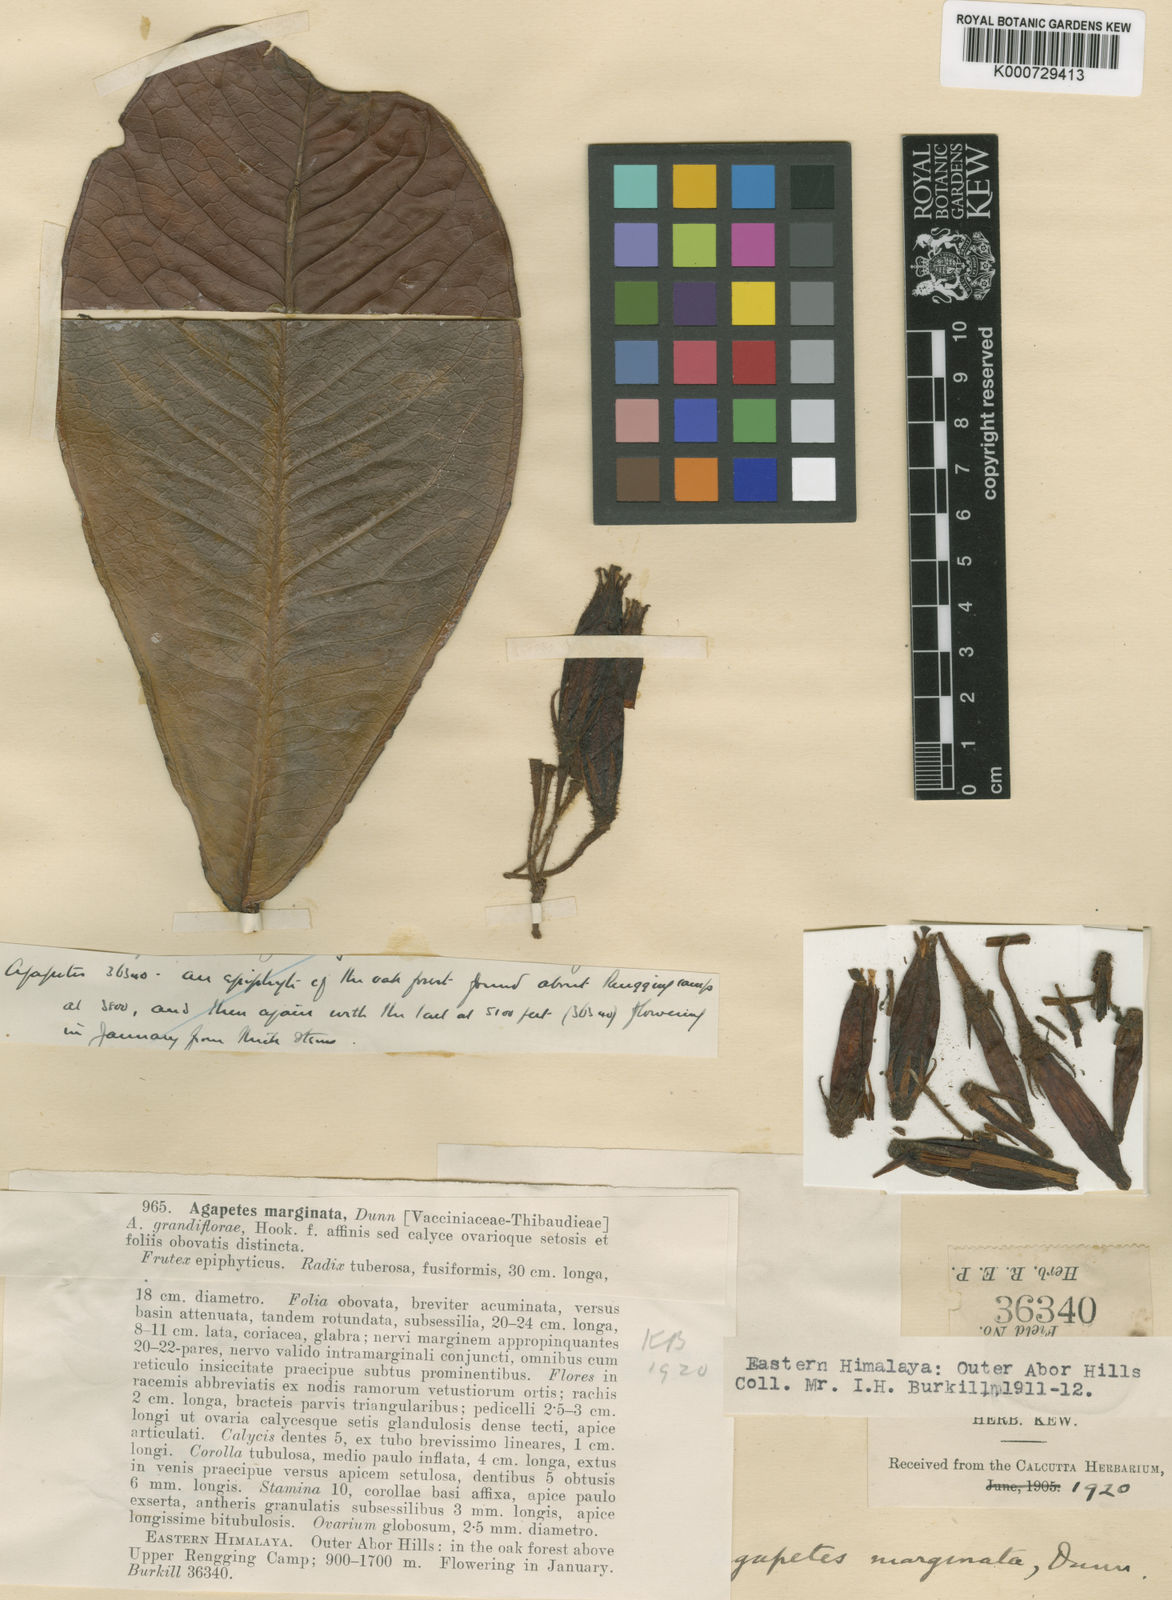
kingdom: Plantae
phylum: Tracheophyta
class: Magnoliopsida
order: Ericales
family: Ericaceae
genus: Agapetes
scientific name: Agapetes marginata
